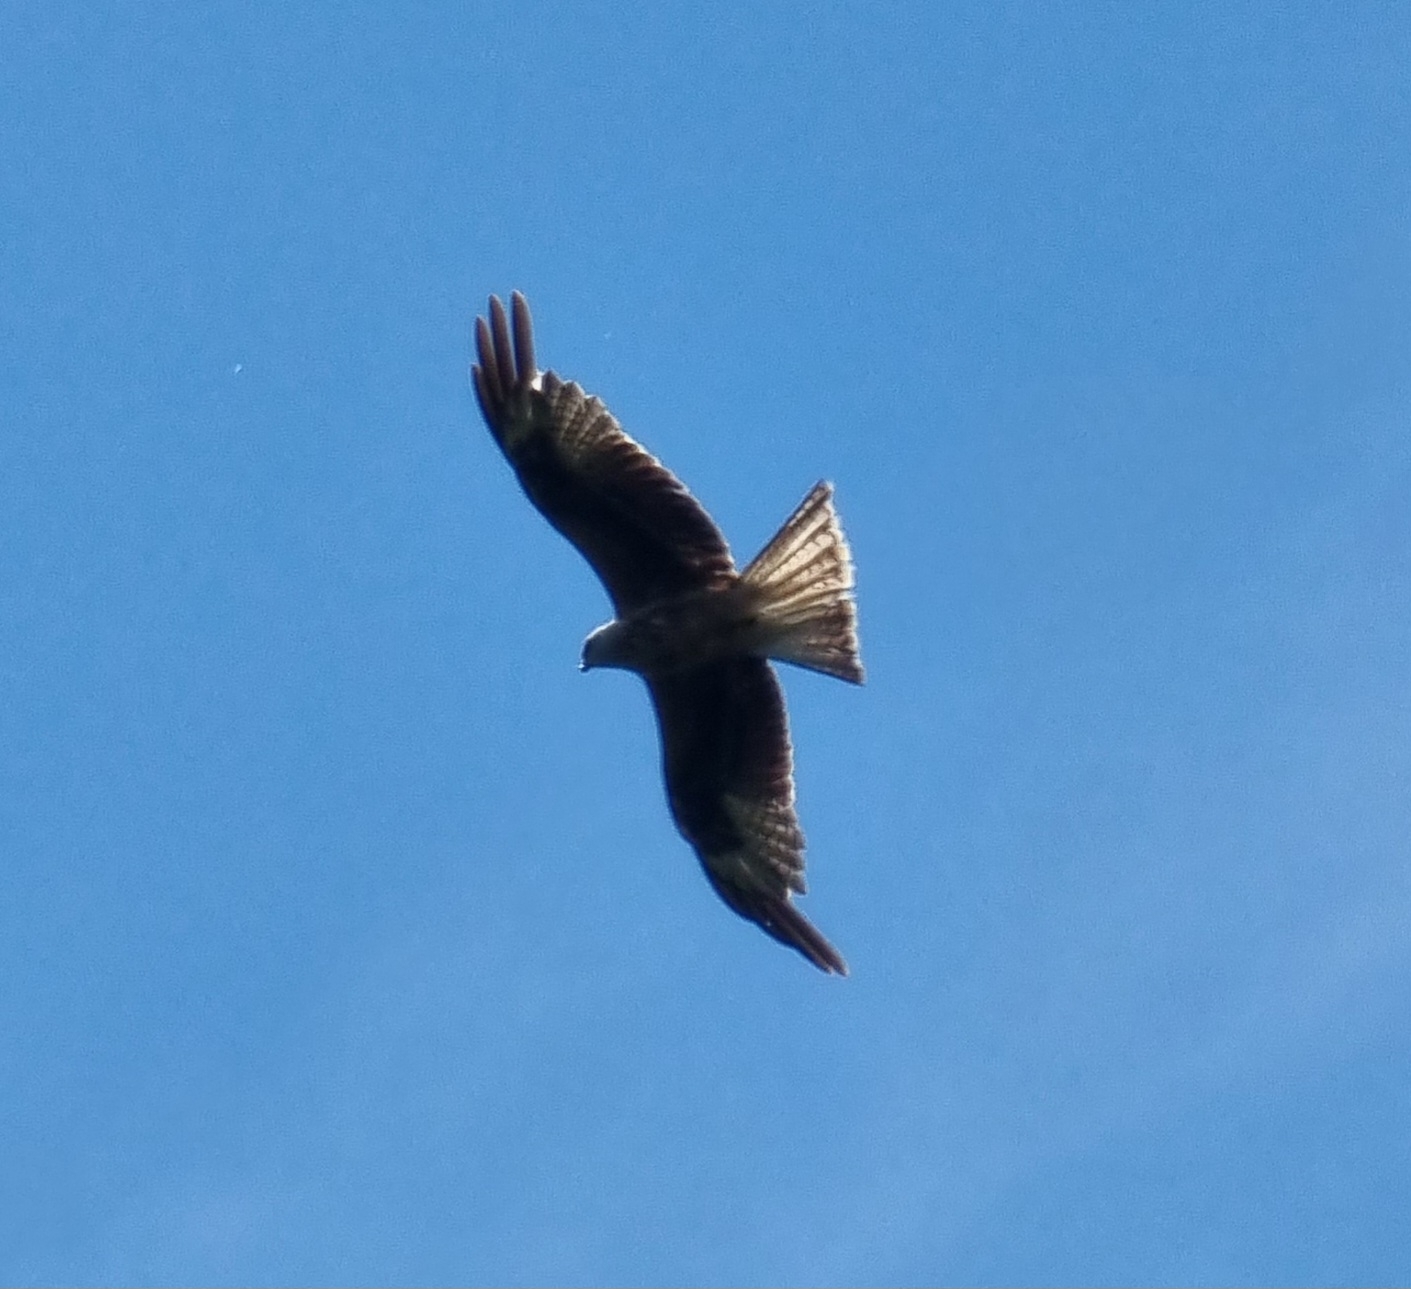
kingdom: Animalia
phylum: Chordata
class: Aves
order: Accipitriformes
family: Accipitridae
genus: Milvus
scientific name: Milvus milvus
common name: Rød glente
